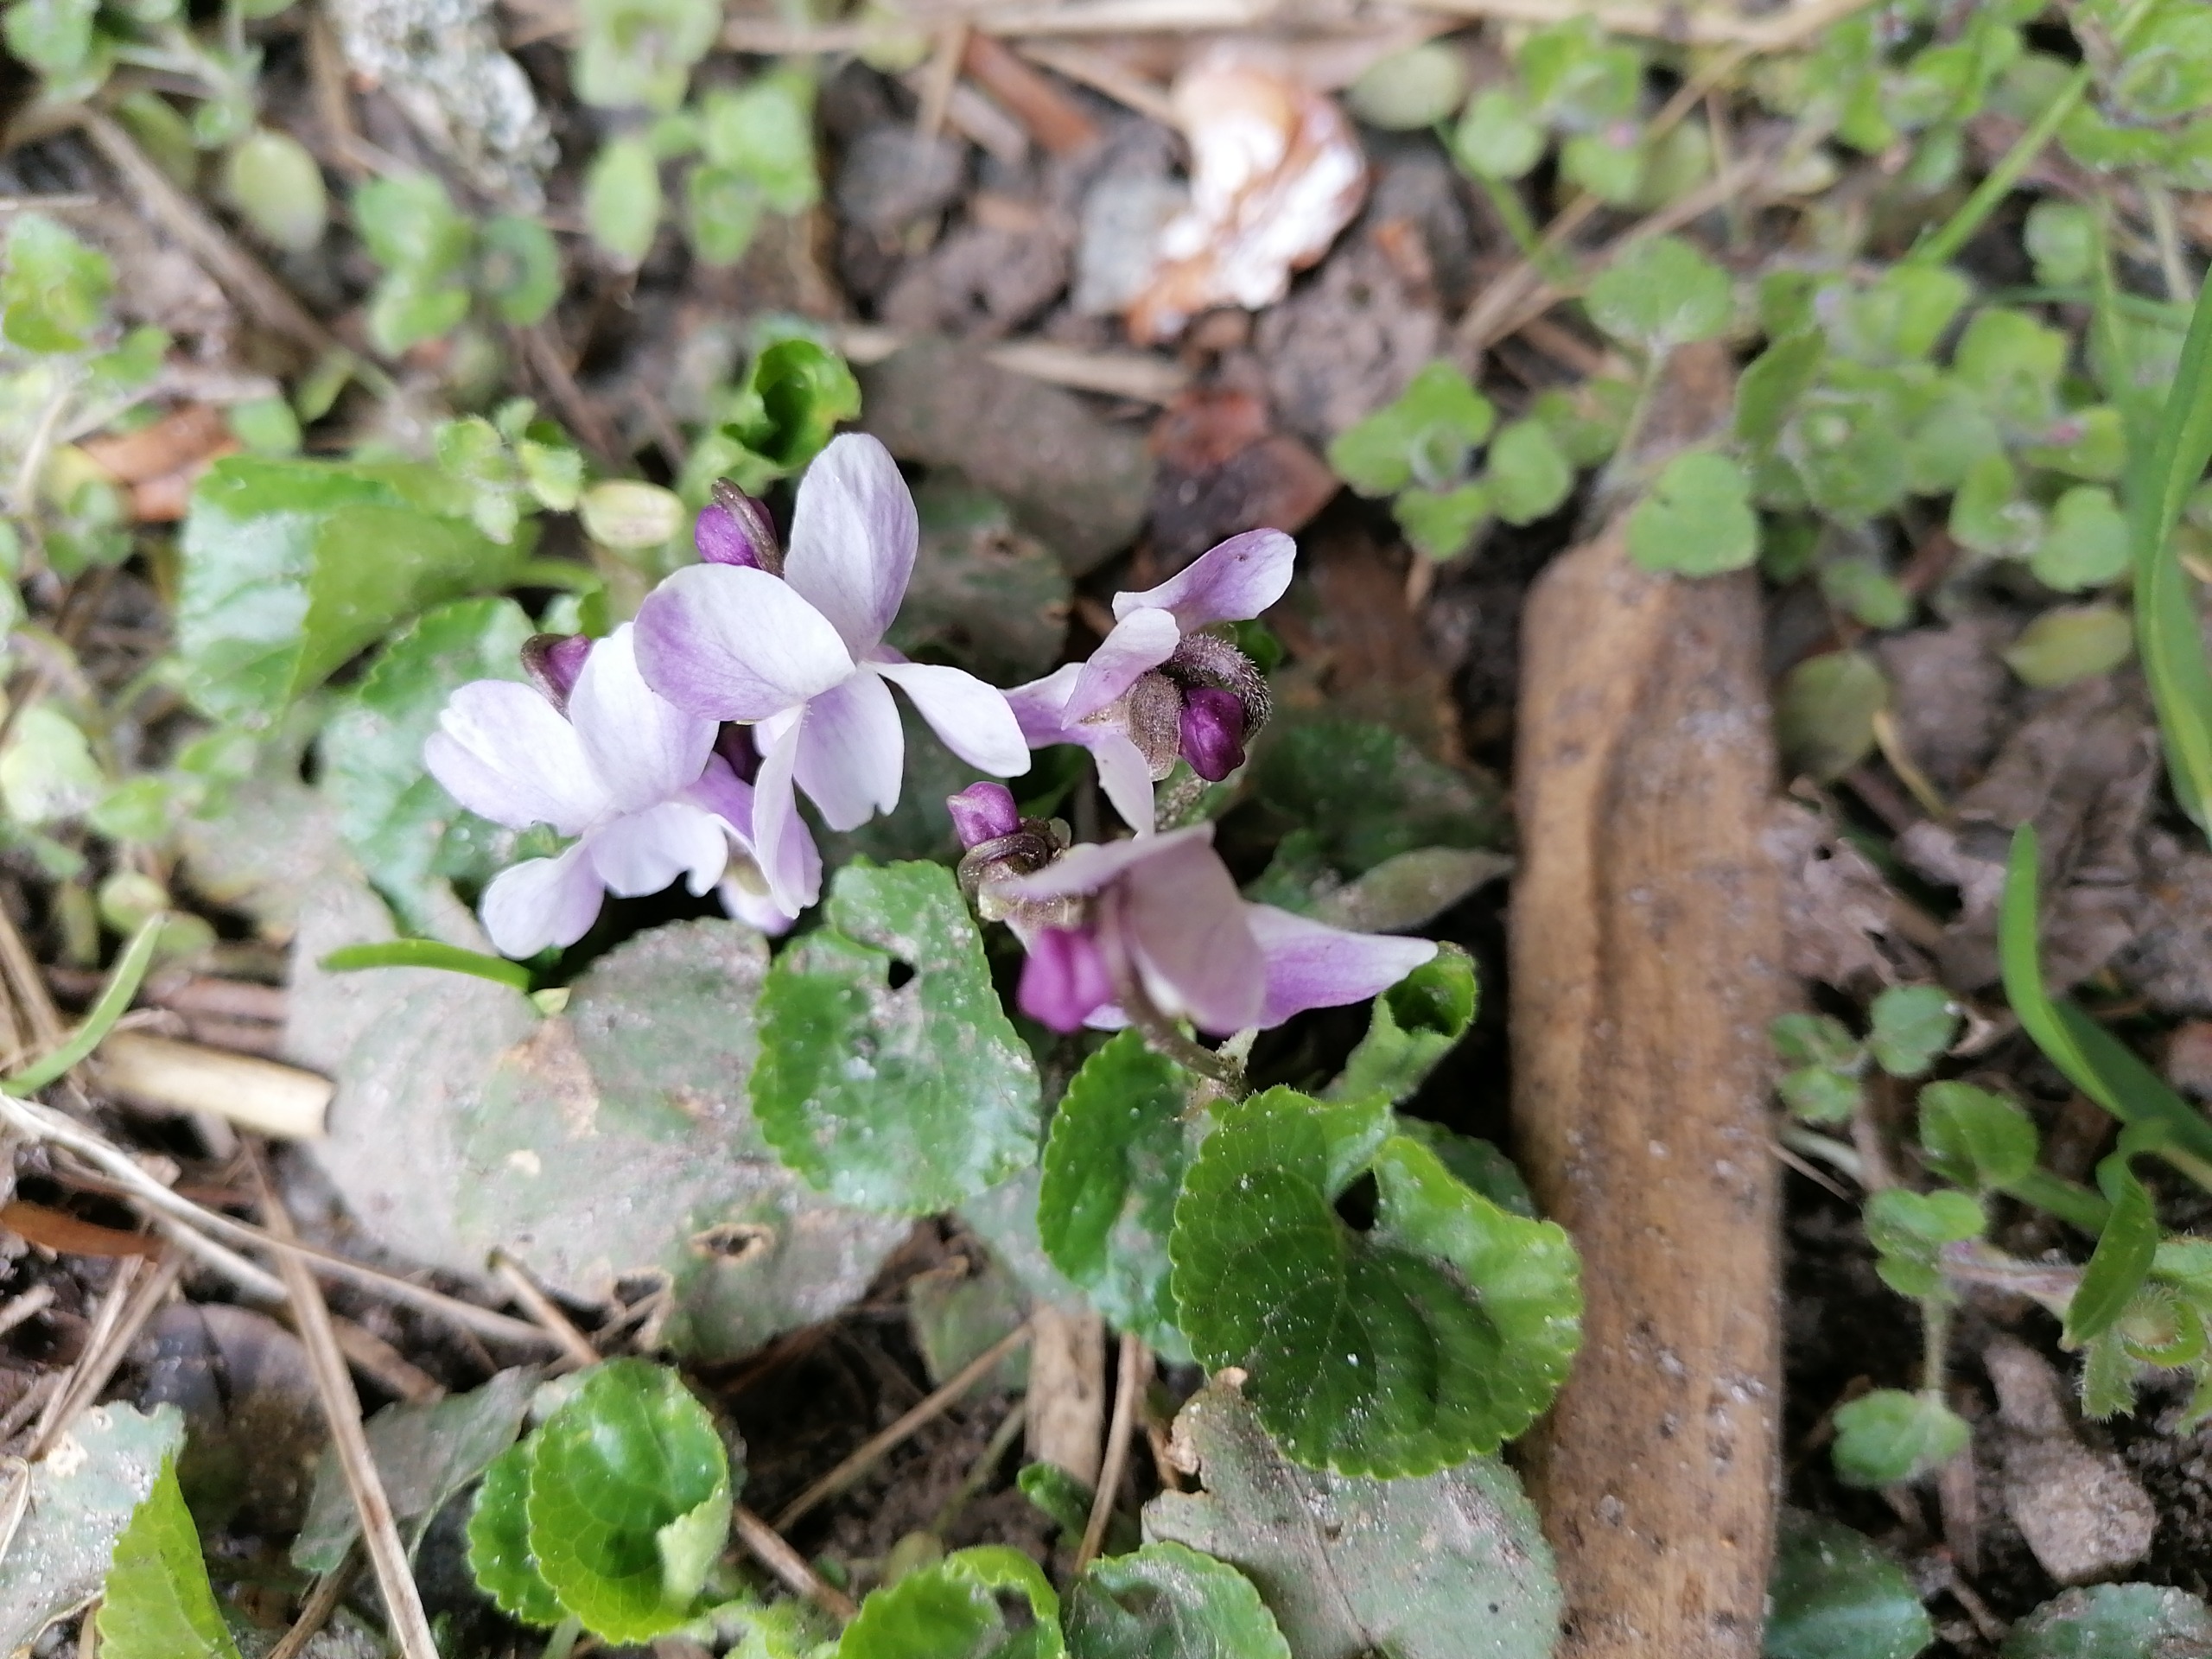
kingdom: Plantae
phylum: Tracheophyta
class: Magnoliopsida
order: Malpighiales
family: Violaceae
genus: Viola
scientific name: Viola odorata
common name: Marts-viol
